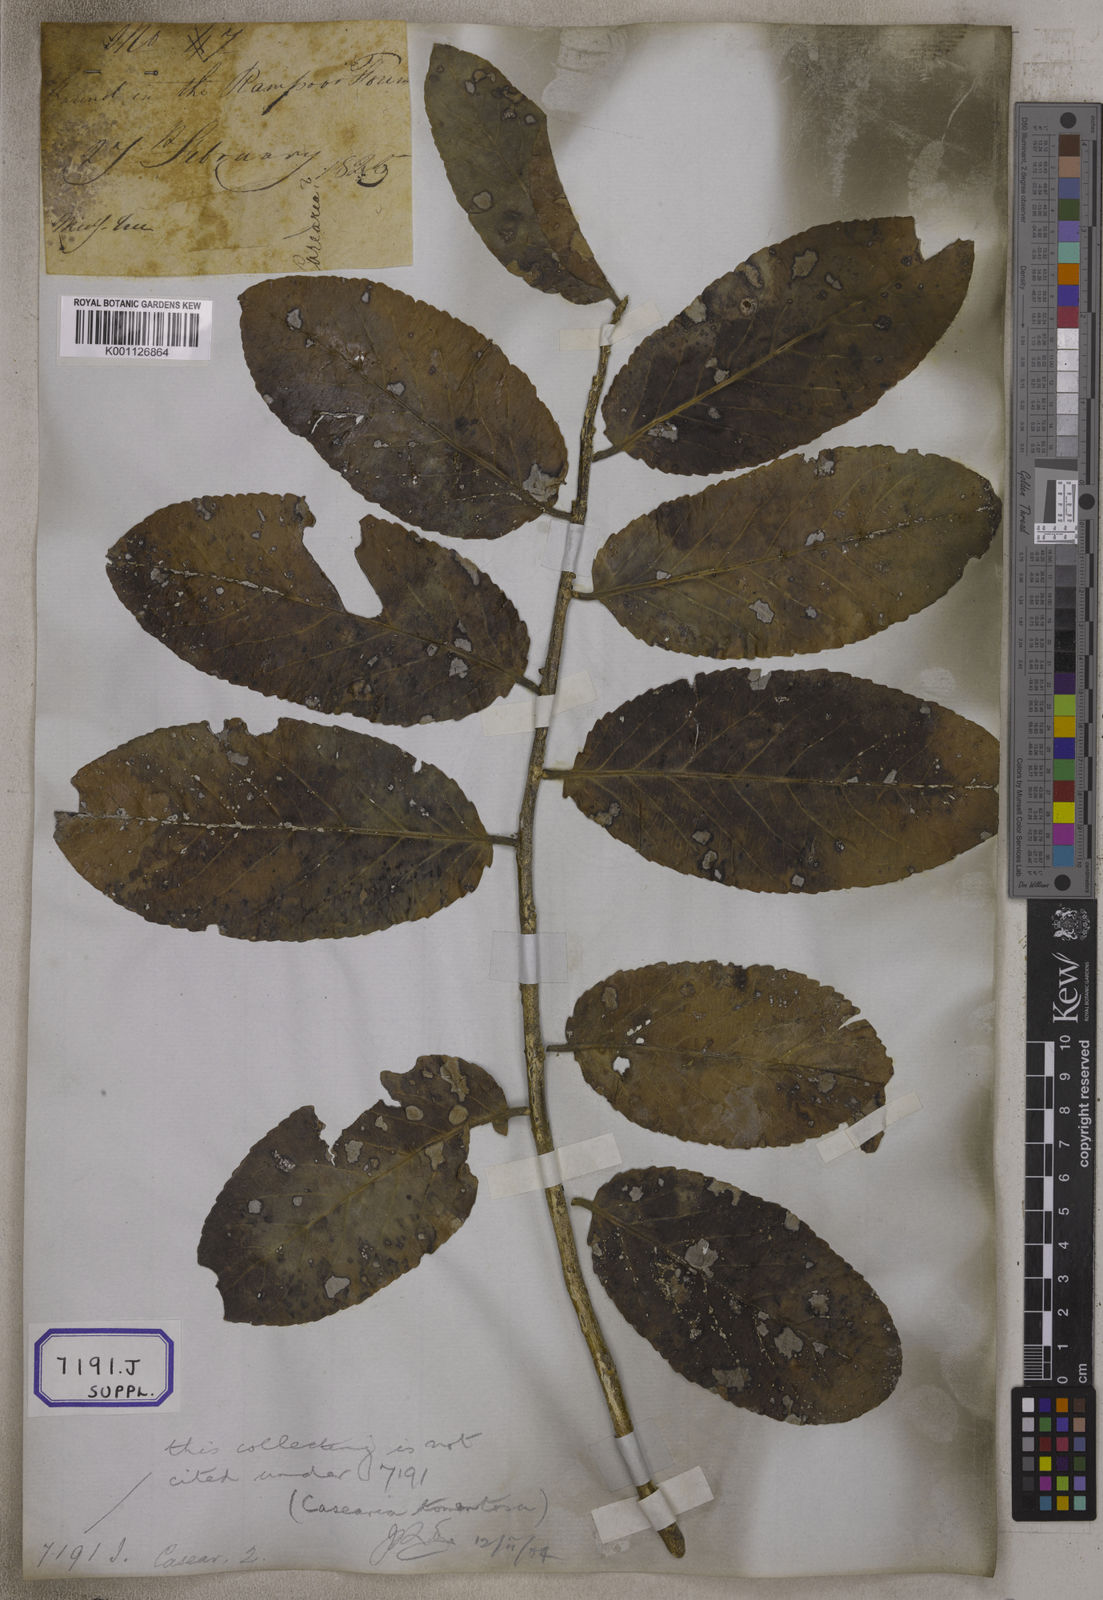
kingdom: Plantae
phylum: Tracheophyta
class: Magnoliopsida
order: Malpighiales
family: Salicaceae
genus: Casearia
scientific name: Casearia tomentosa
